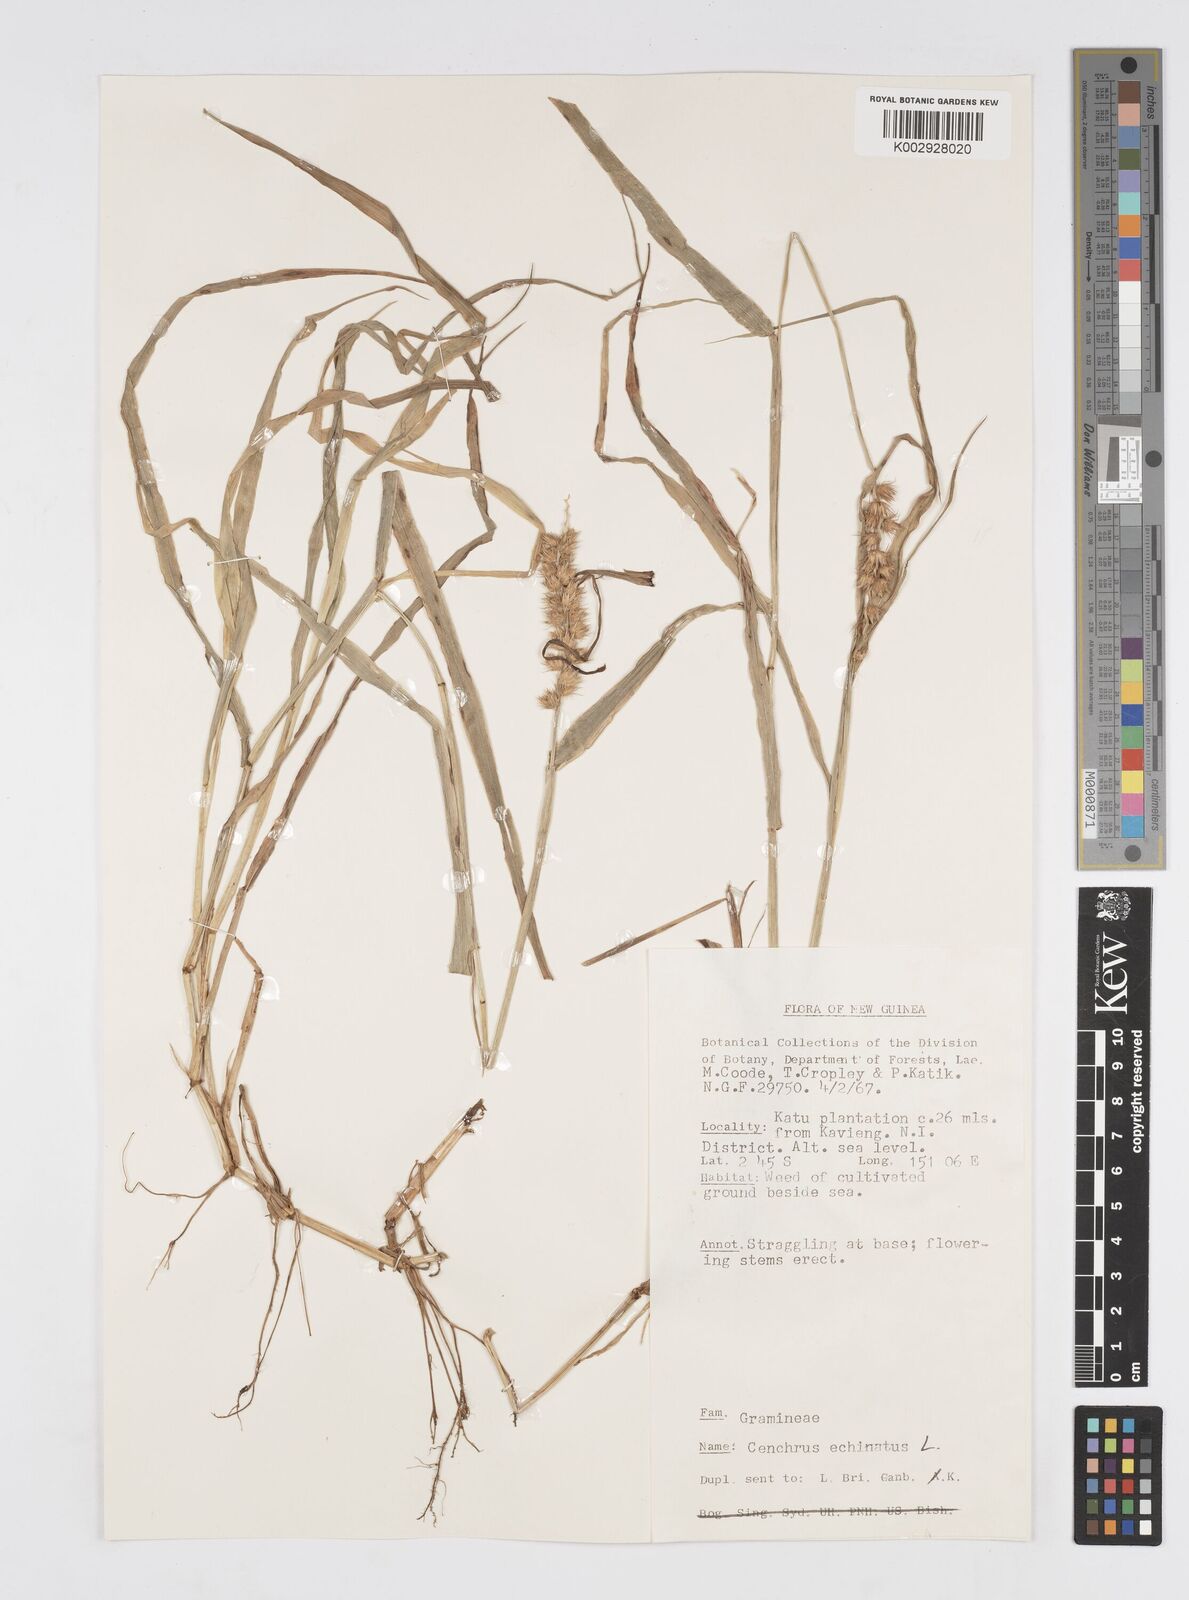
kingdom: Plantae
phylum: Tracheophyta
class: Liliopsida
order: Poales
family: Poaceae
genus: Cenchrus
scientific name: Cenchrus brownii
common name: Slim-bristle sandbur
